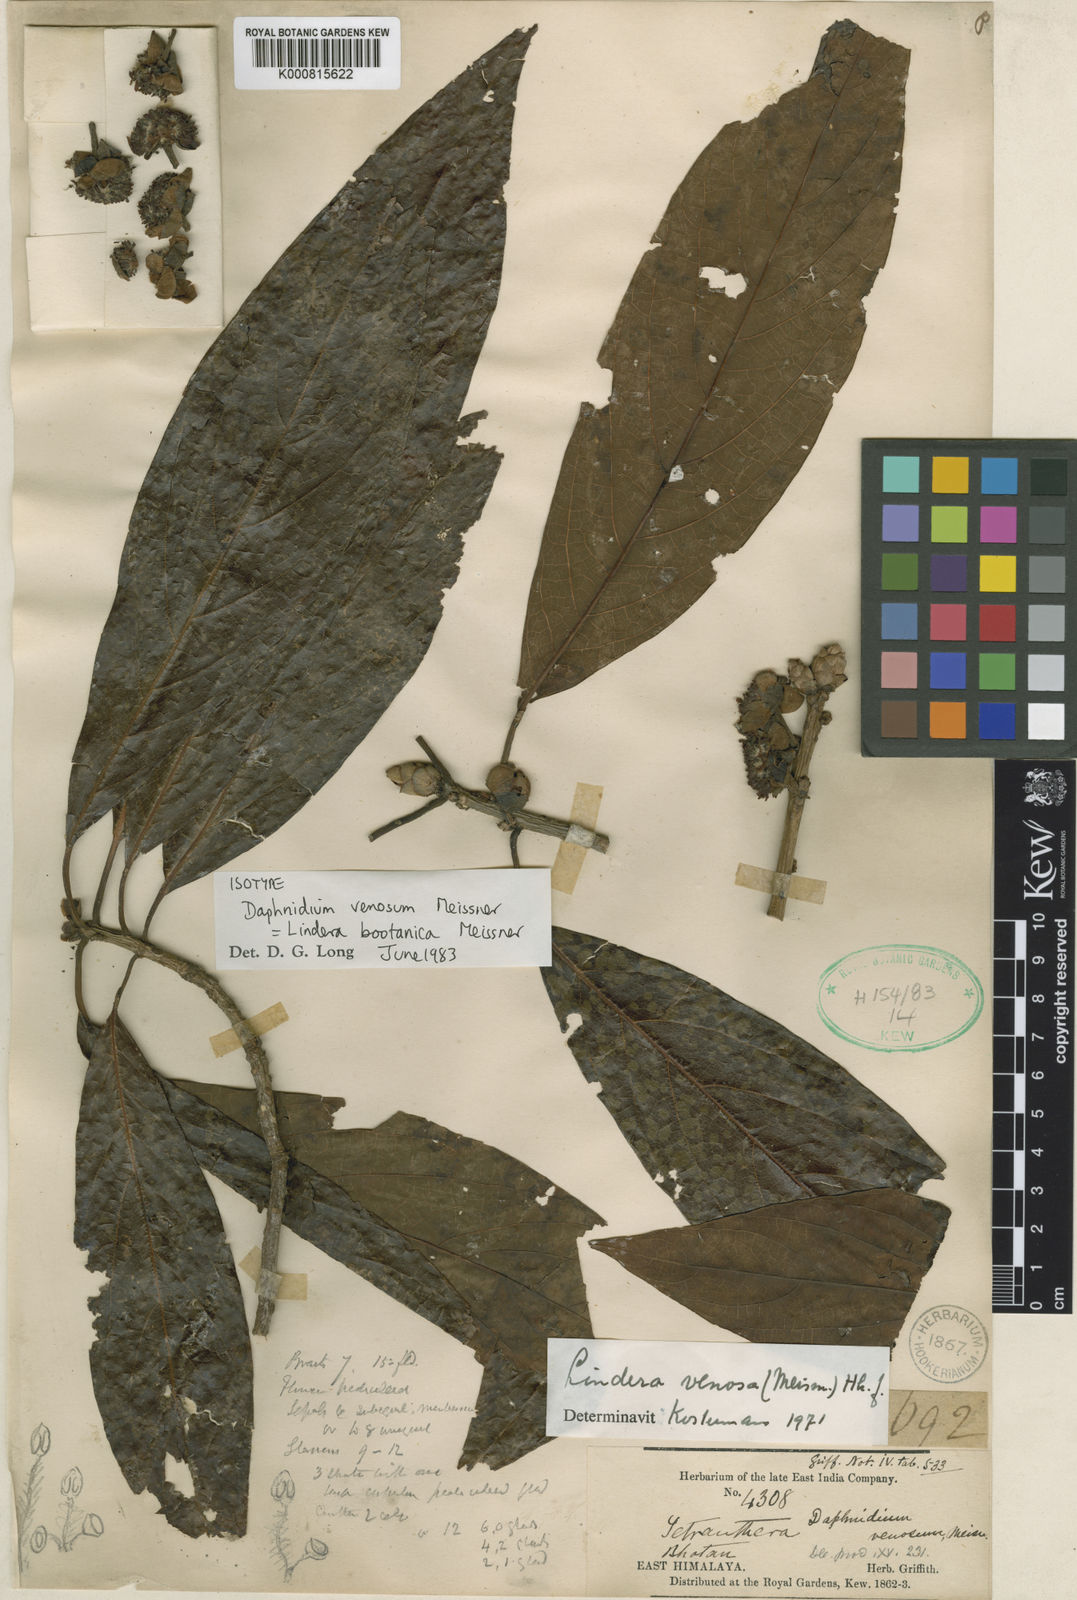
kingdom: Plantae
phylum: Tracheophyta
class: Magnoliopsida
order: Laurales
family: Lauraceae
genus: Lindera
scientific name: Lindera bootanica
